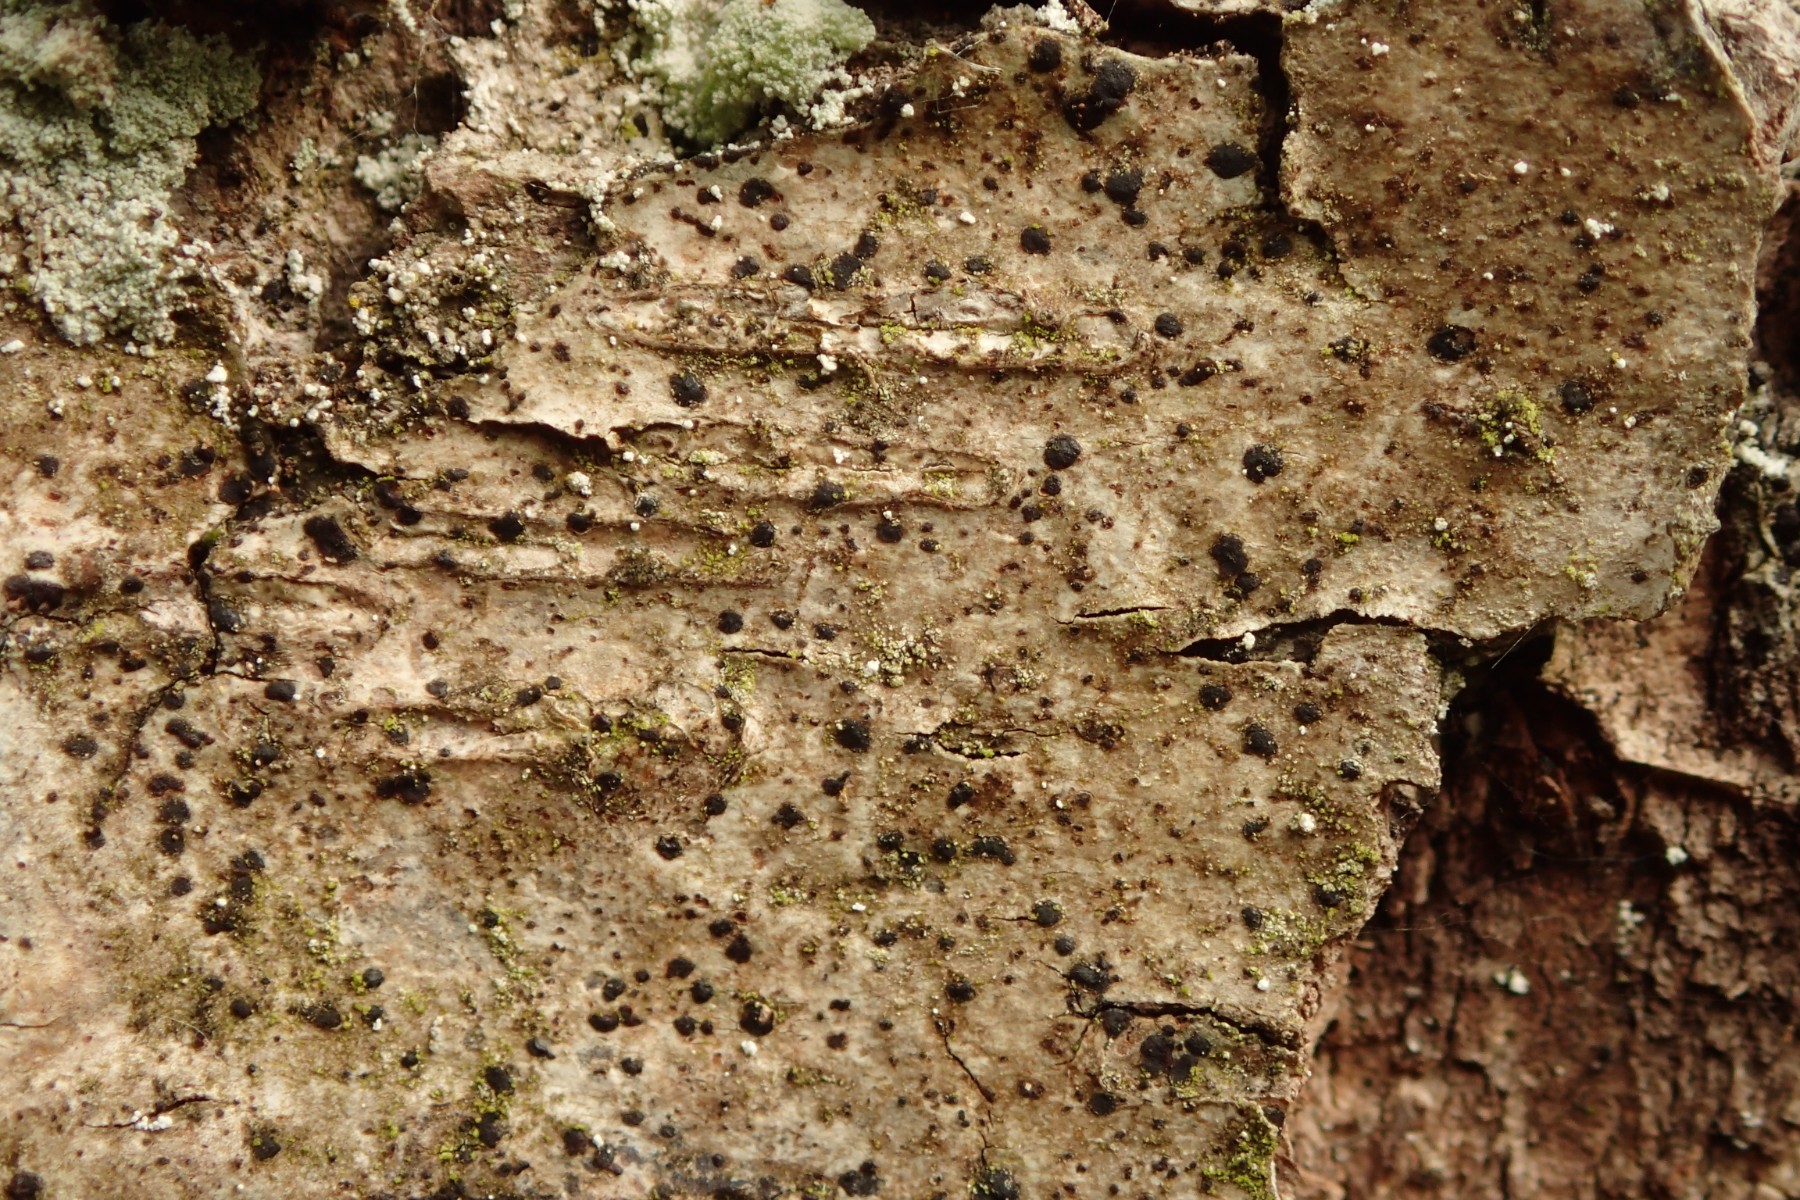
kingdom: Fungi
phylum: Ascomycota
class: Arthoniomycetes
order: Arthoniales
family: Arthoniaceae
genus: Diarthonis
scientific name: Diarthonis spadicea
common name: skygge-pletlav
